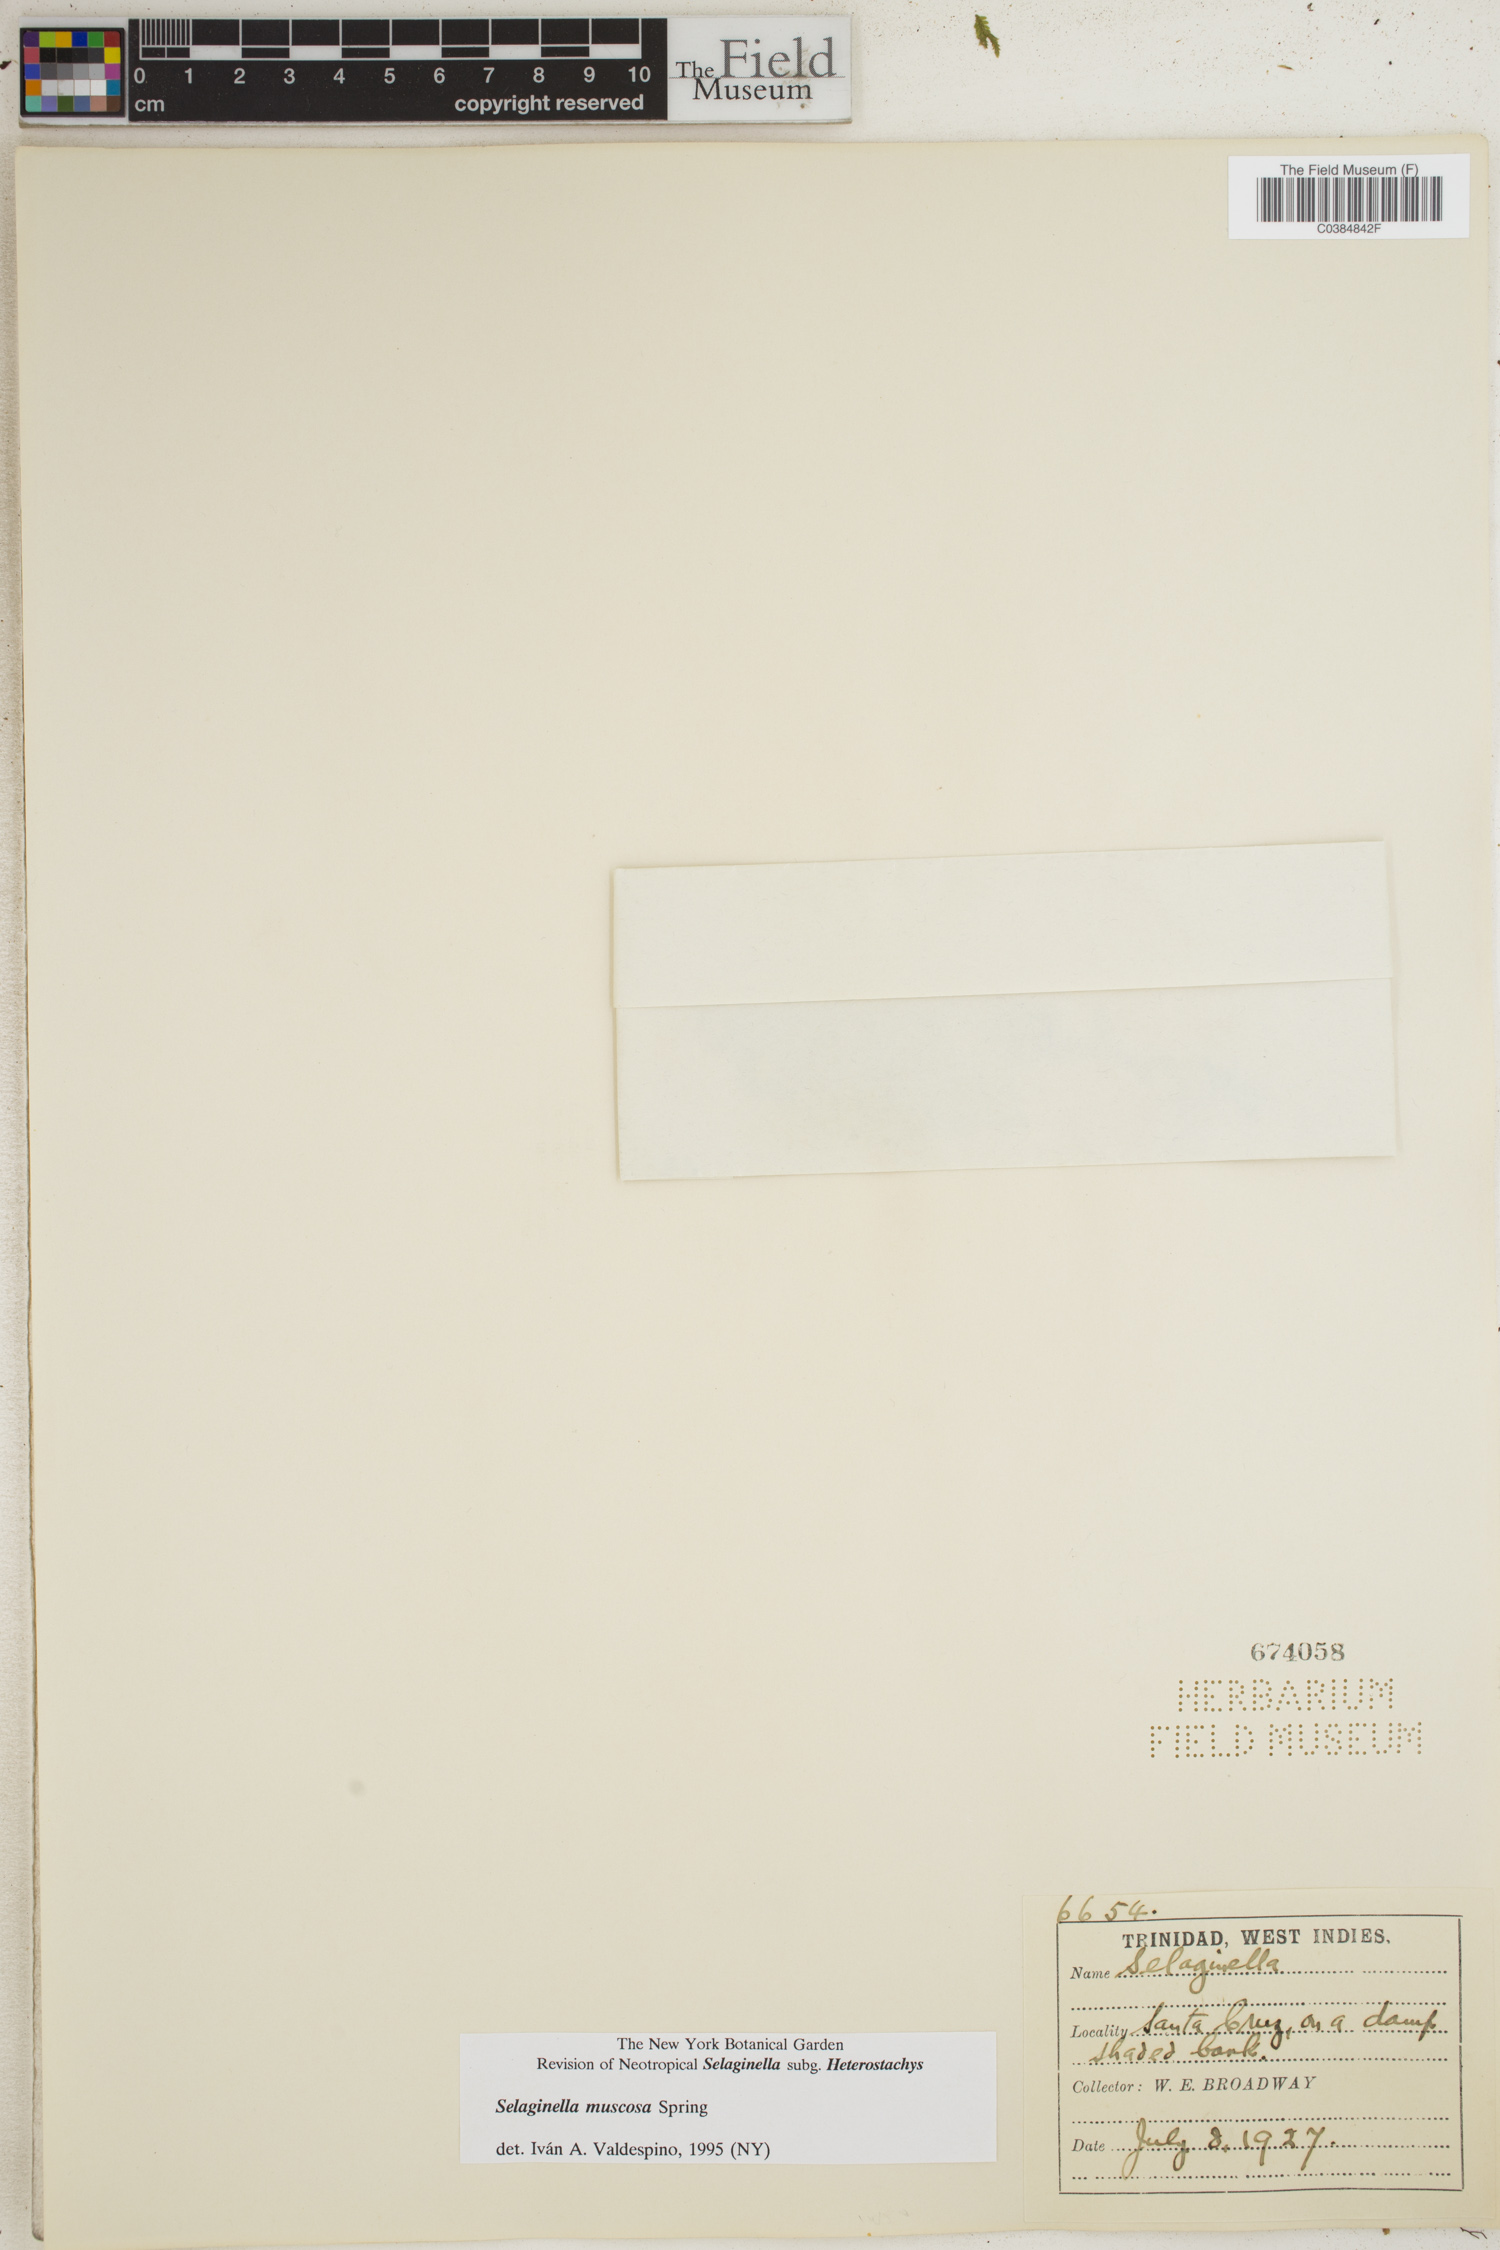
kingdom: Plantae
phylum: Tracheophyta
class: Lycopodiopsida
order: Selaginellales
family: Selaginellaceae
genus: Selaginella
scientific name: Selaginella muscosa
